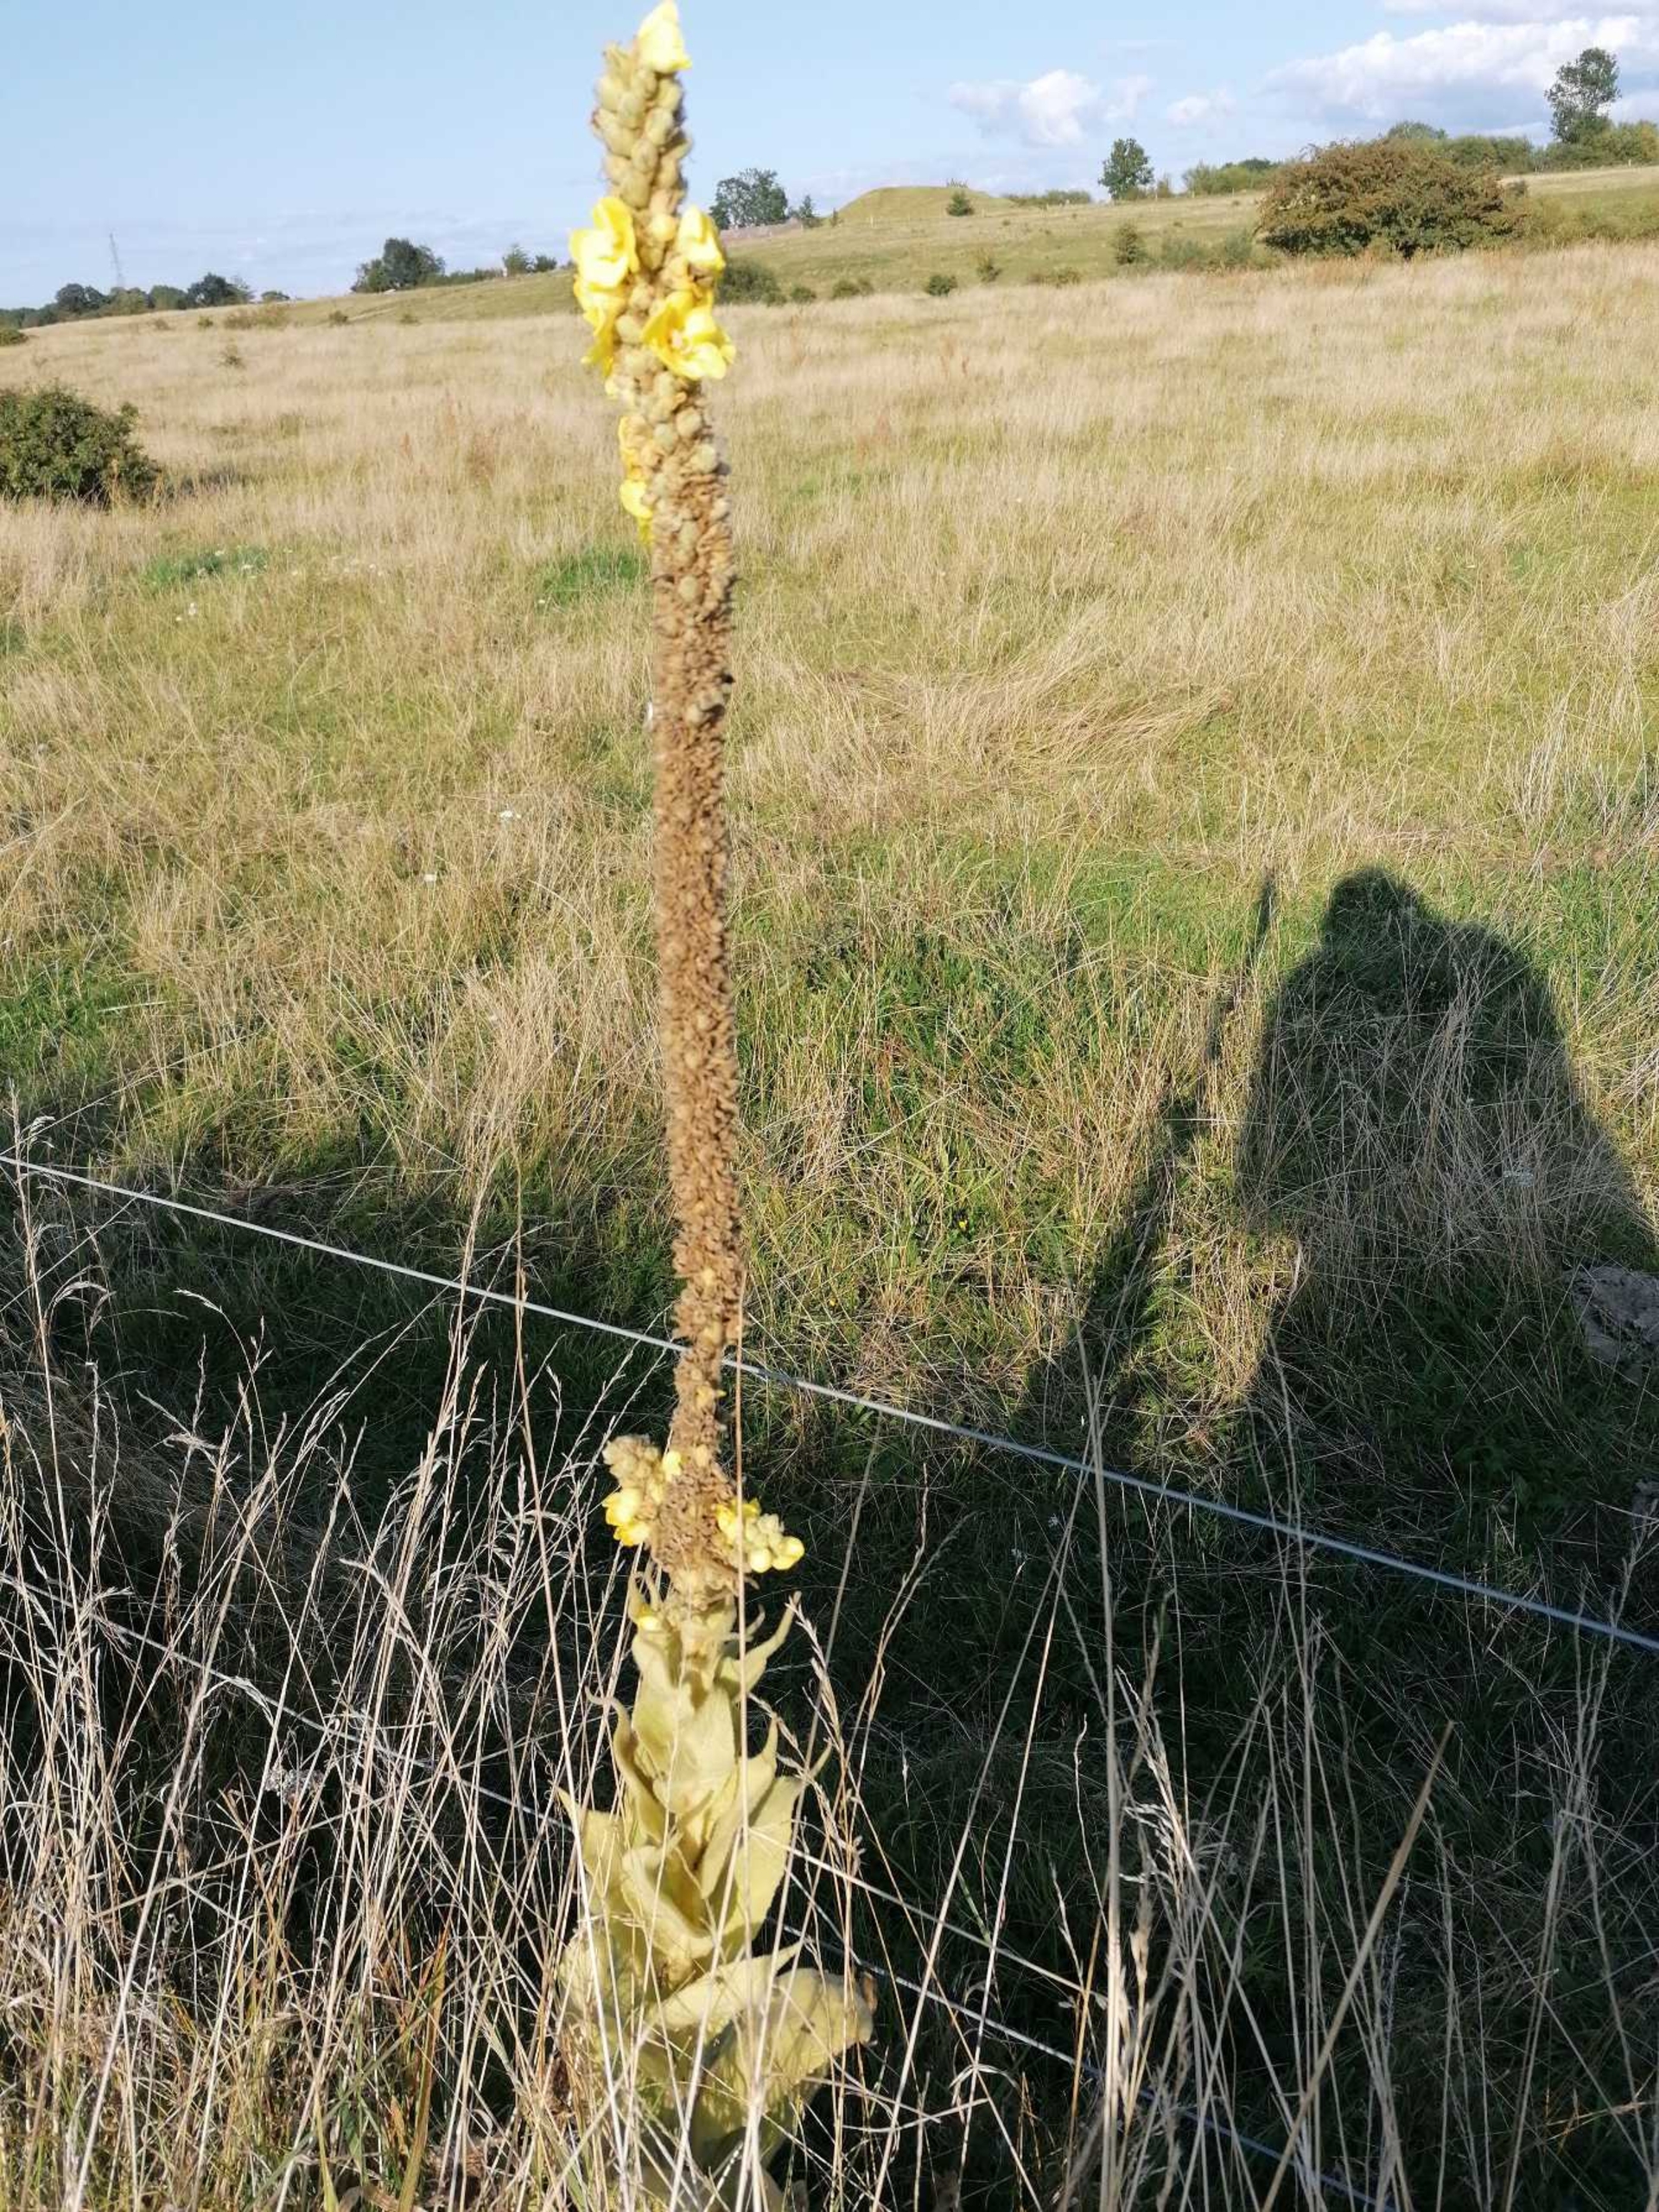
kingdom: Plantae
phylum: Tracheophyta
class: Magnoliopsida
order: Lamiales
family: Scrophulariaceae
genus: Verbascum
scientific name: Verbascum thapsus
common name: Filtbladet kongelys
